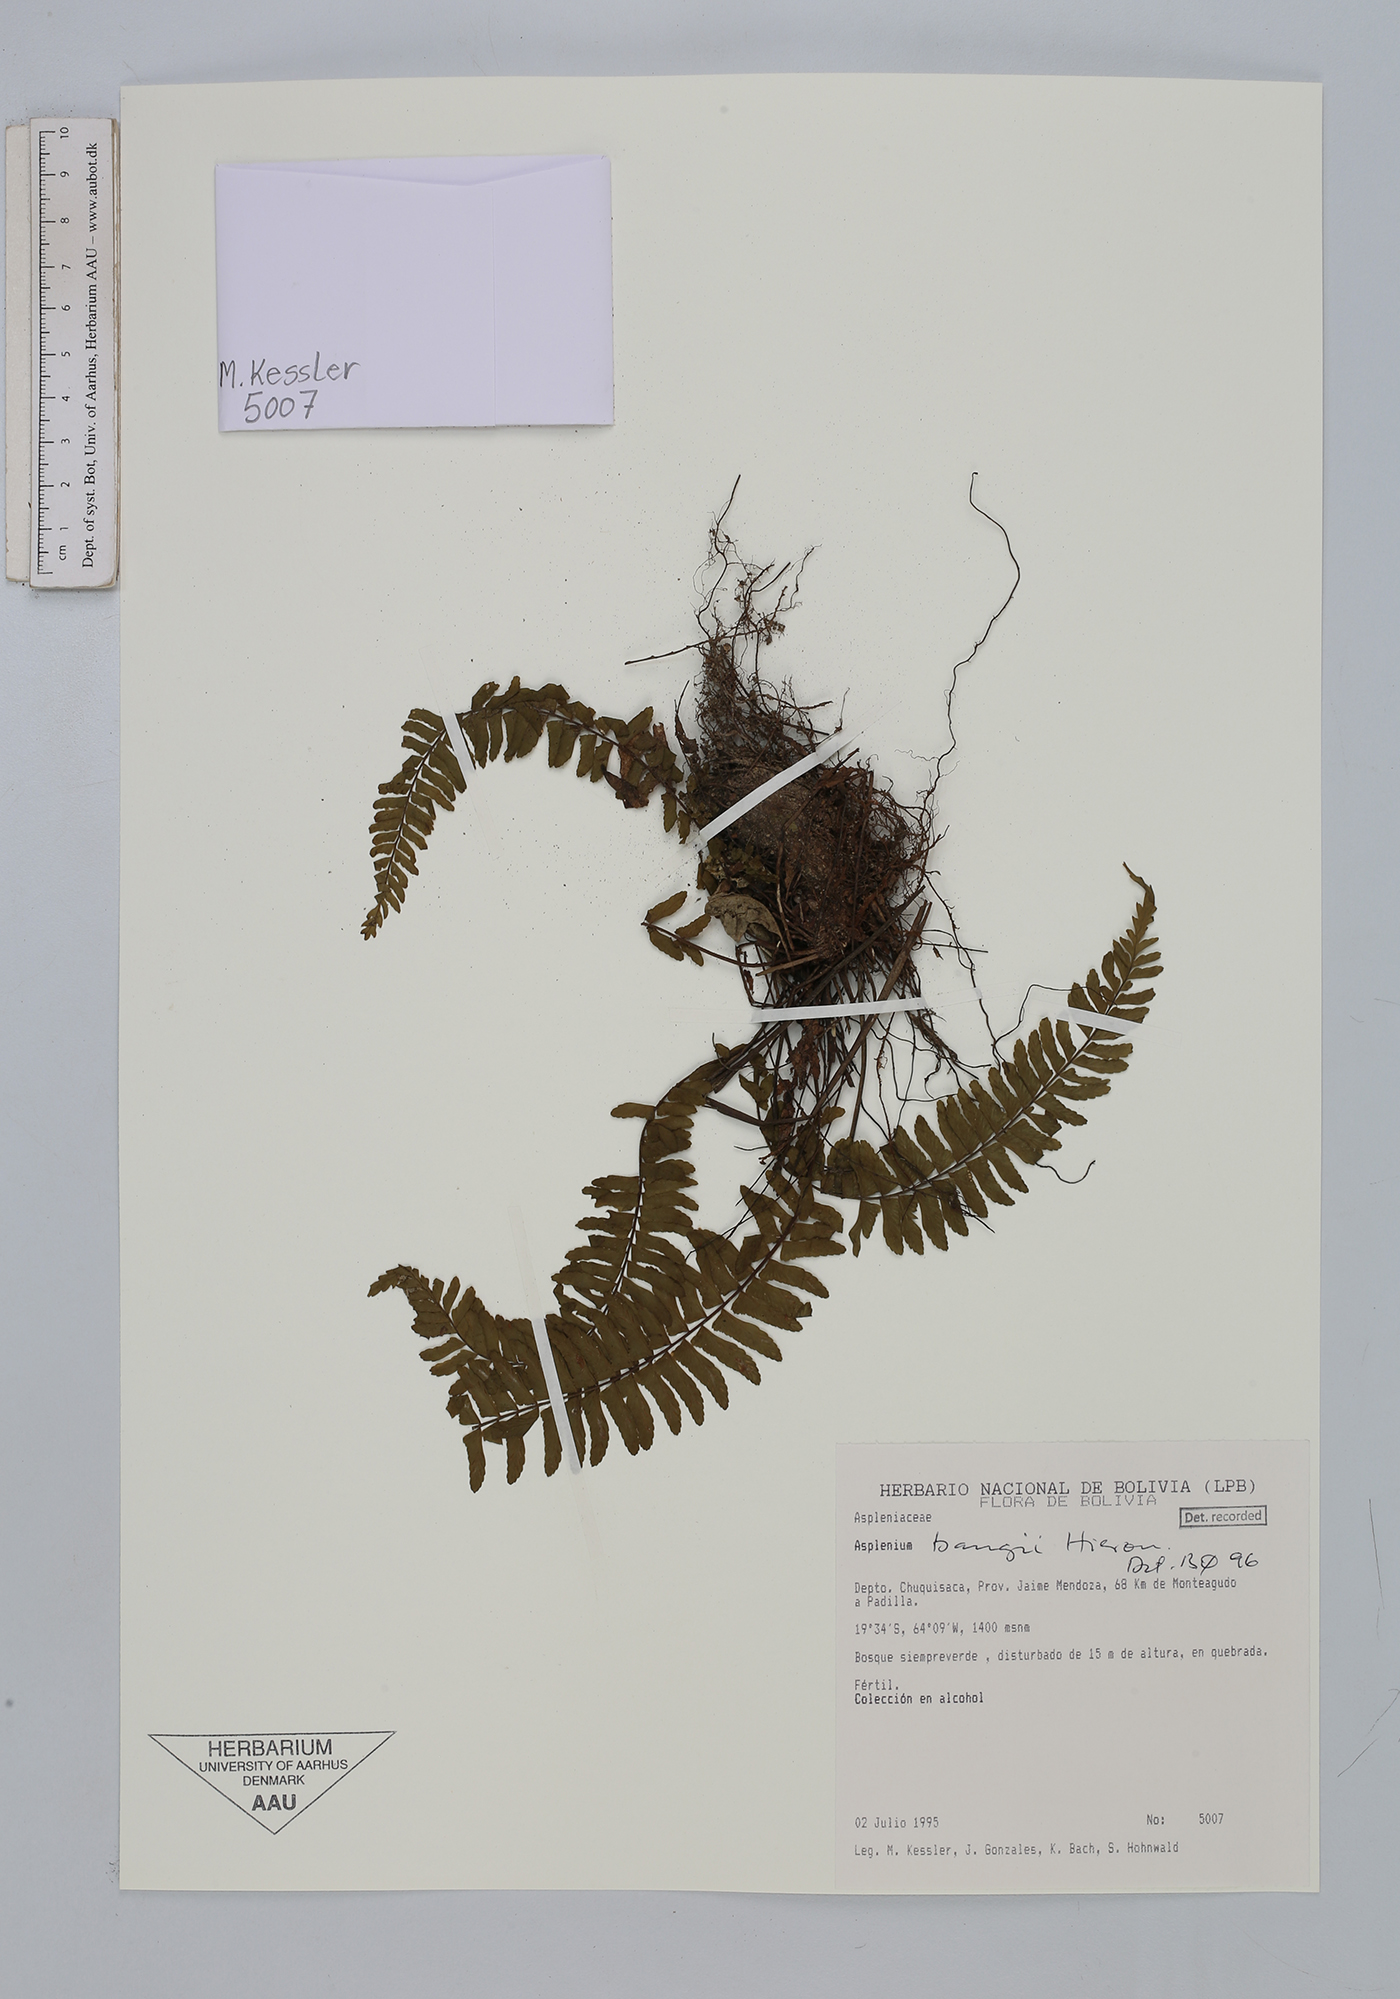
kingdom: Plantae
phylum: Tracheophyta
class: Polypodiopsida
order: Polypodiales
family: Aspleniaceae
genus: Asplenium
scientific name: Asplenium bangii
